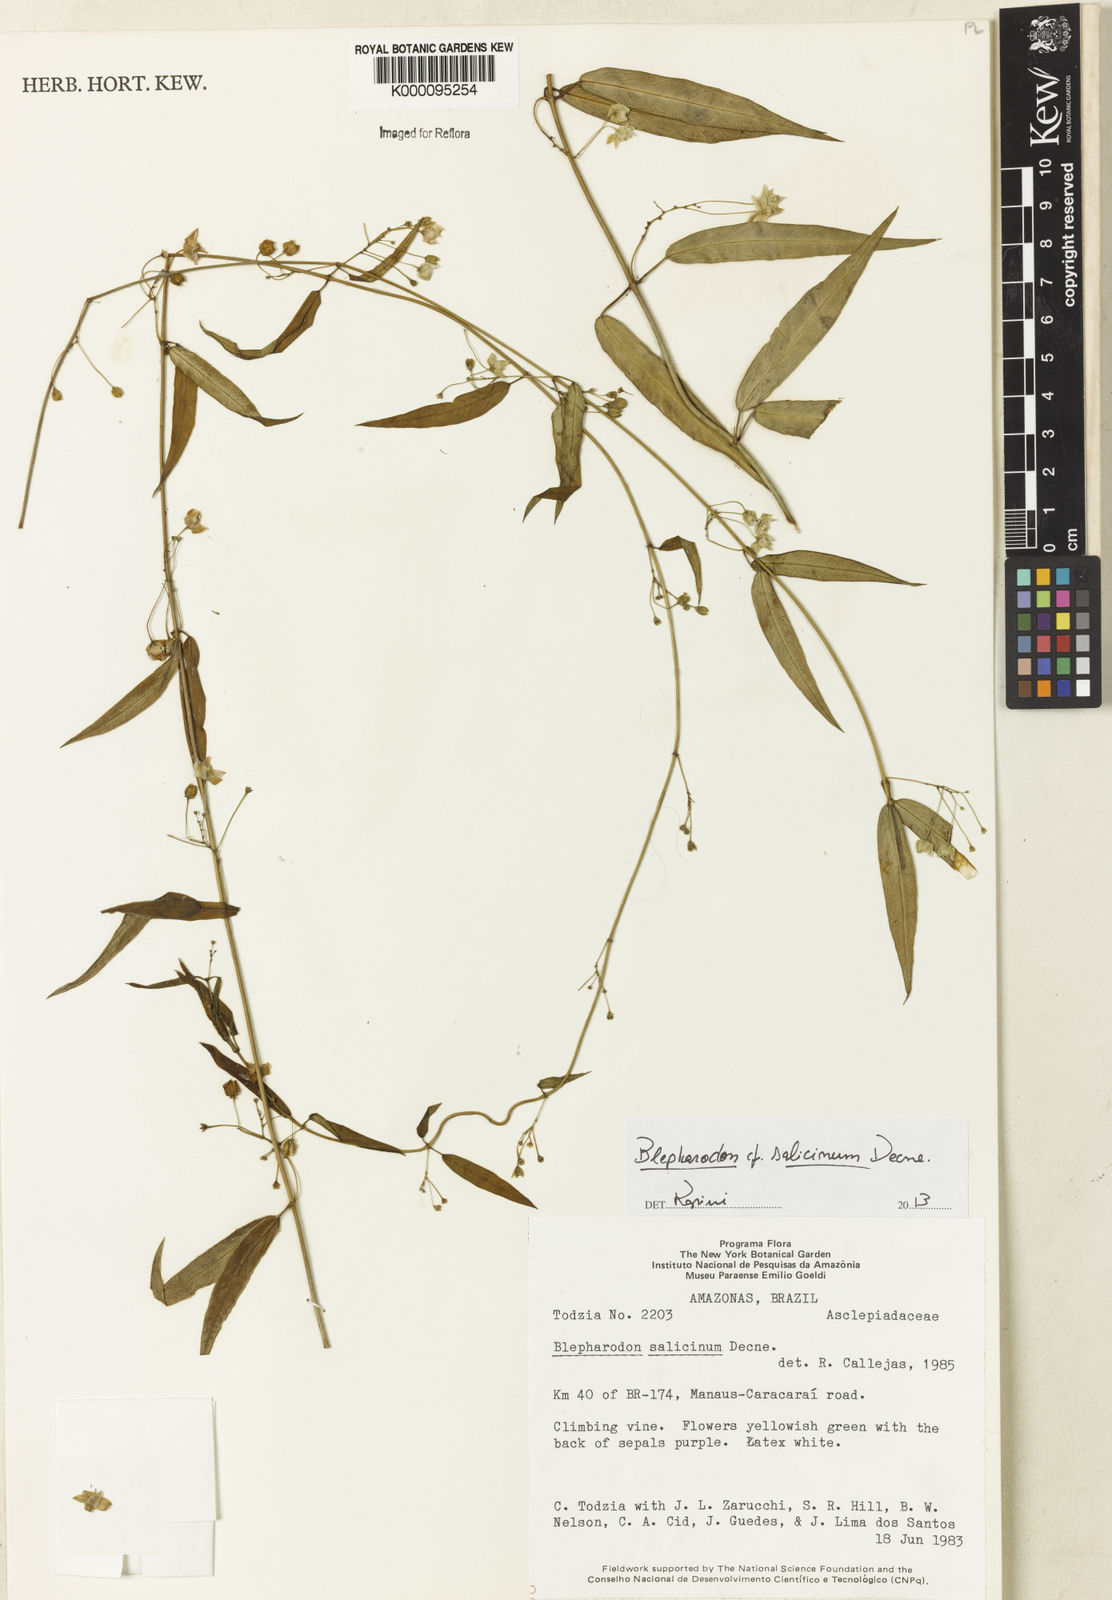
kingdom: Plantae
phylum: Tracheophyta
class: Magnoliopsida
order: Gentianales
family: Apocynaceae
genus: Vailia
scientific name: Vailia salicina
